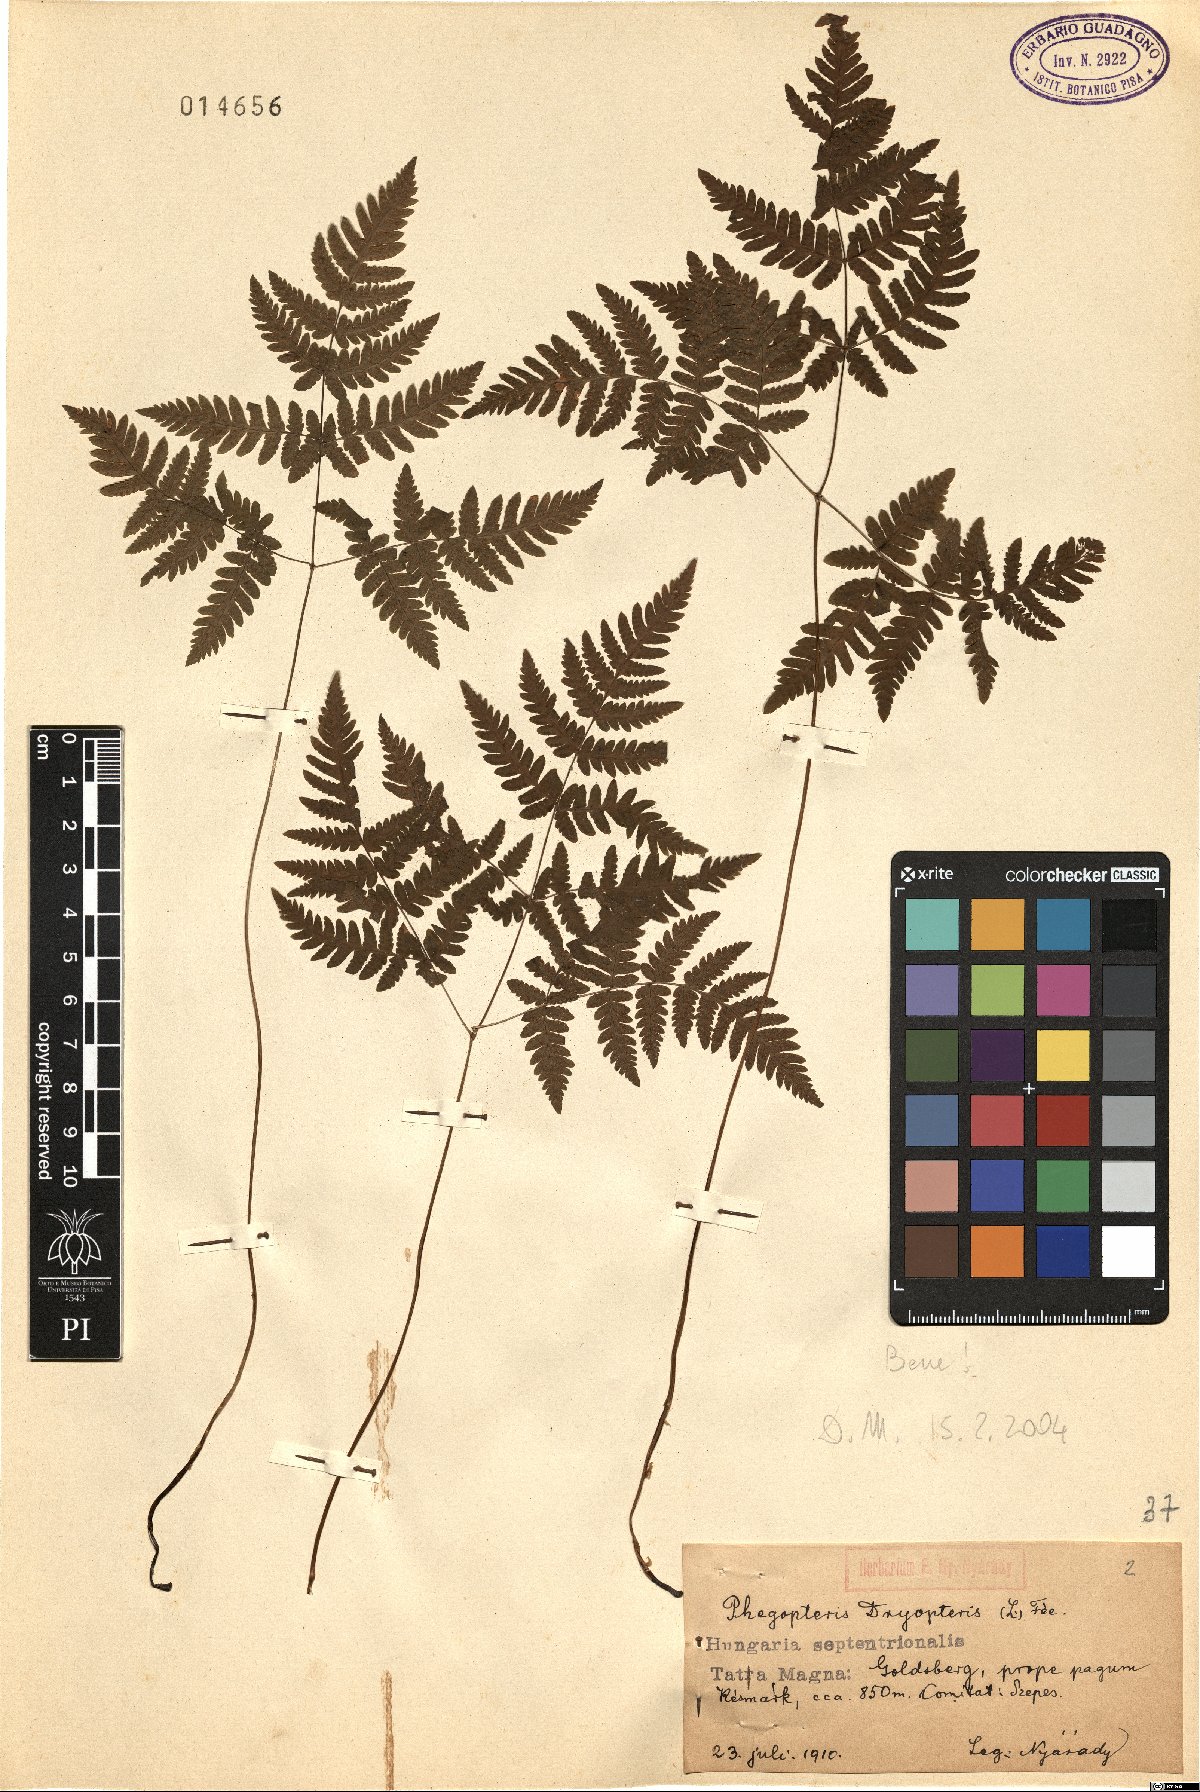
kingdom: Plantae
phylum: Tracheophyta
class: Polypodiopsida
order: Polypodiales
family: Cystopteridaceae
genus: Gymnocarpium
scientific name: Gymnocarpium dryopteris
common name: Oak fern
